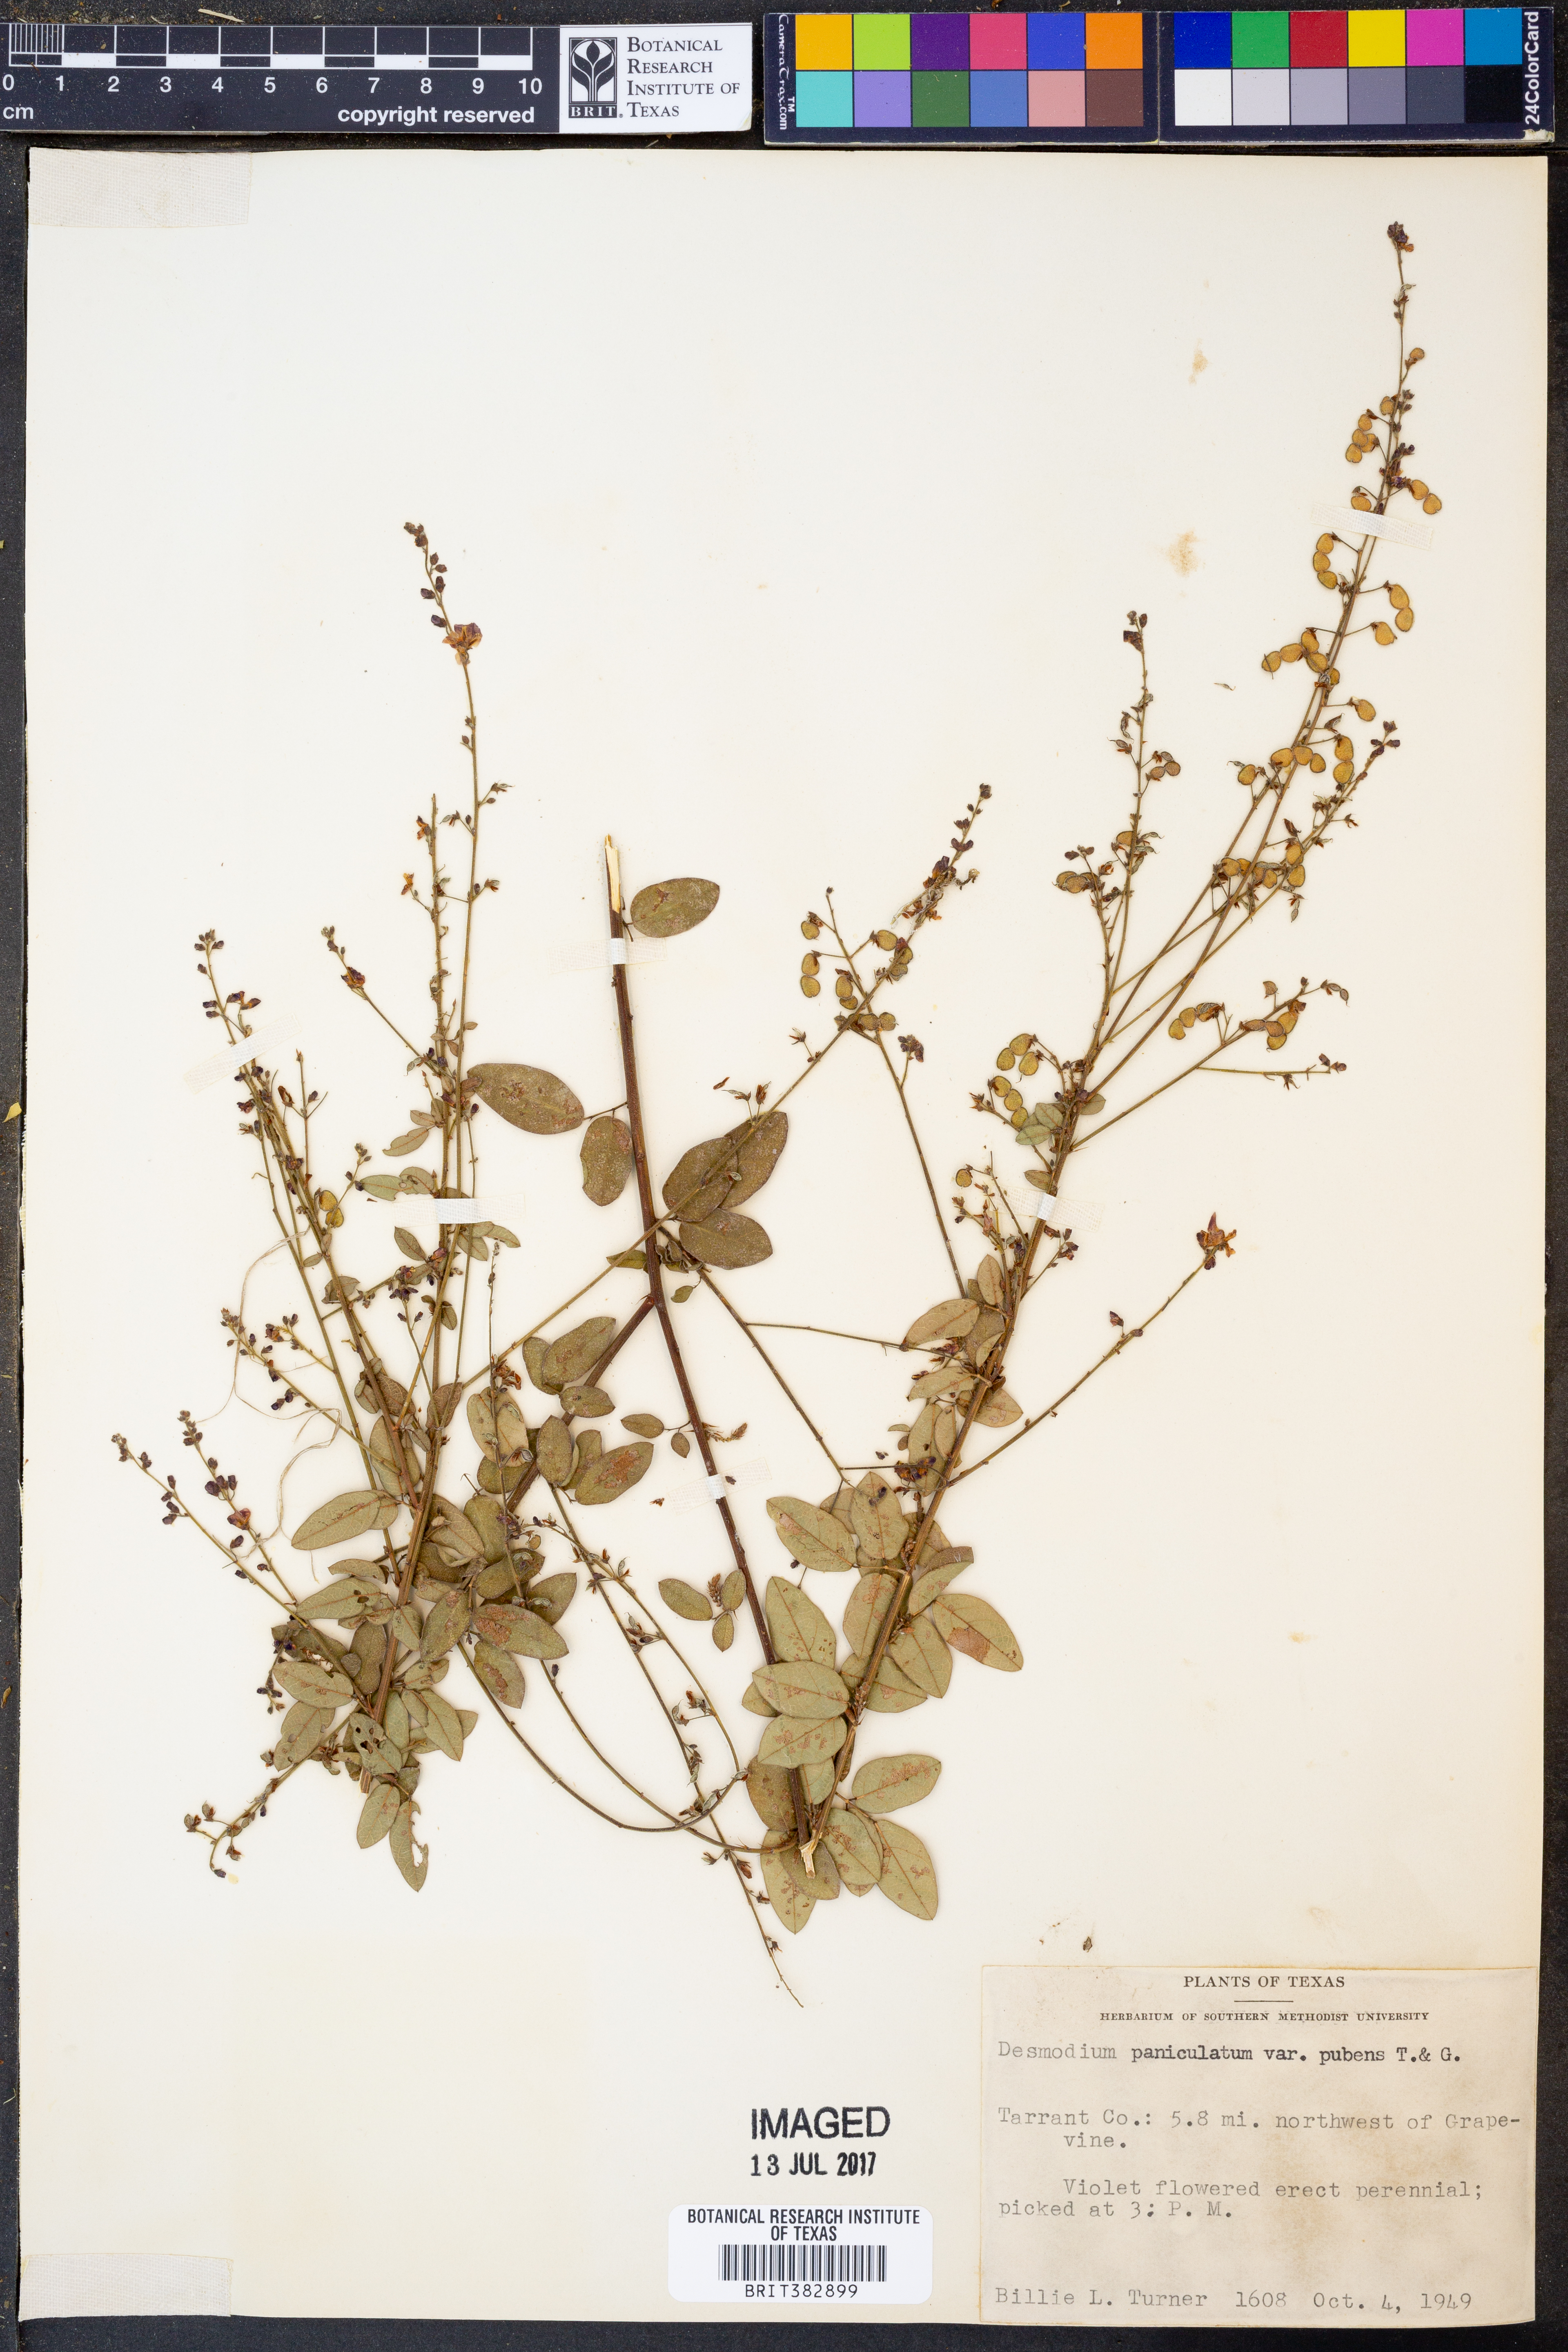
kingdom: Plantae
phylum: Tracheophyta
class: Magnoliopsida
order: Fabales
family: Fabaceae
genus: Desmodium
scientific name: Desmodium paniculatum
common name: Panicled tick-clover
